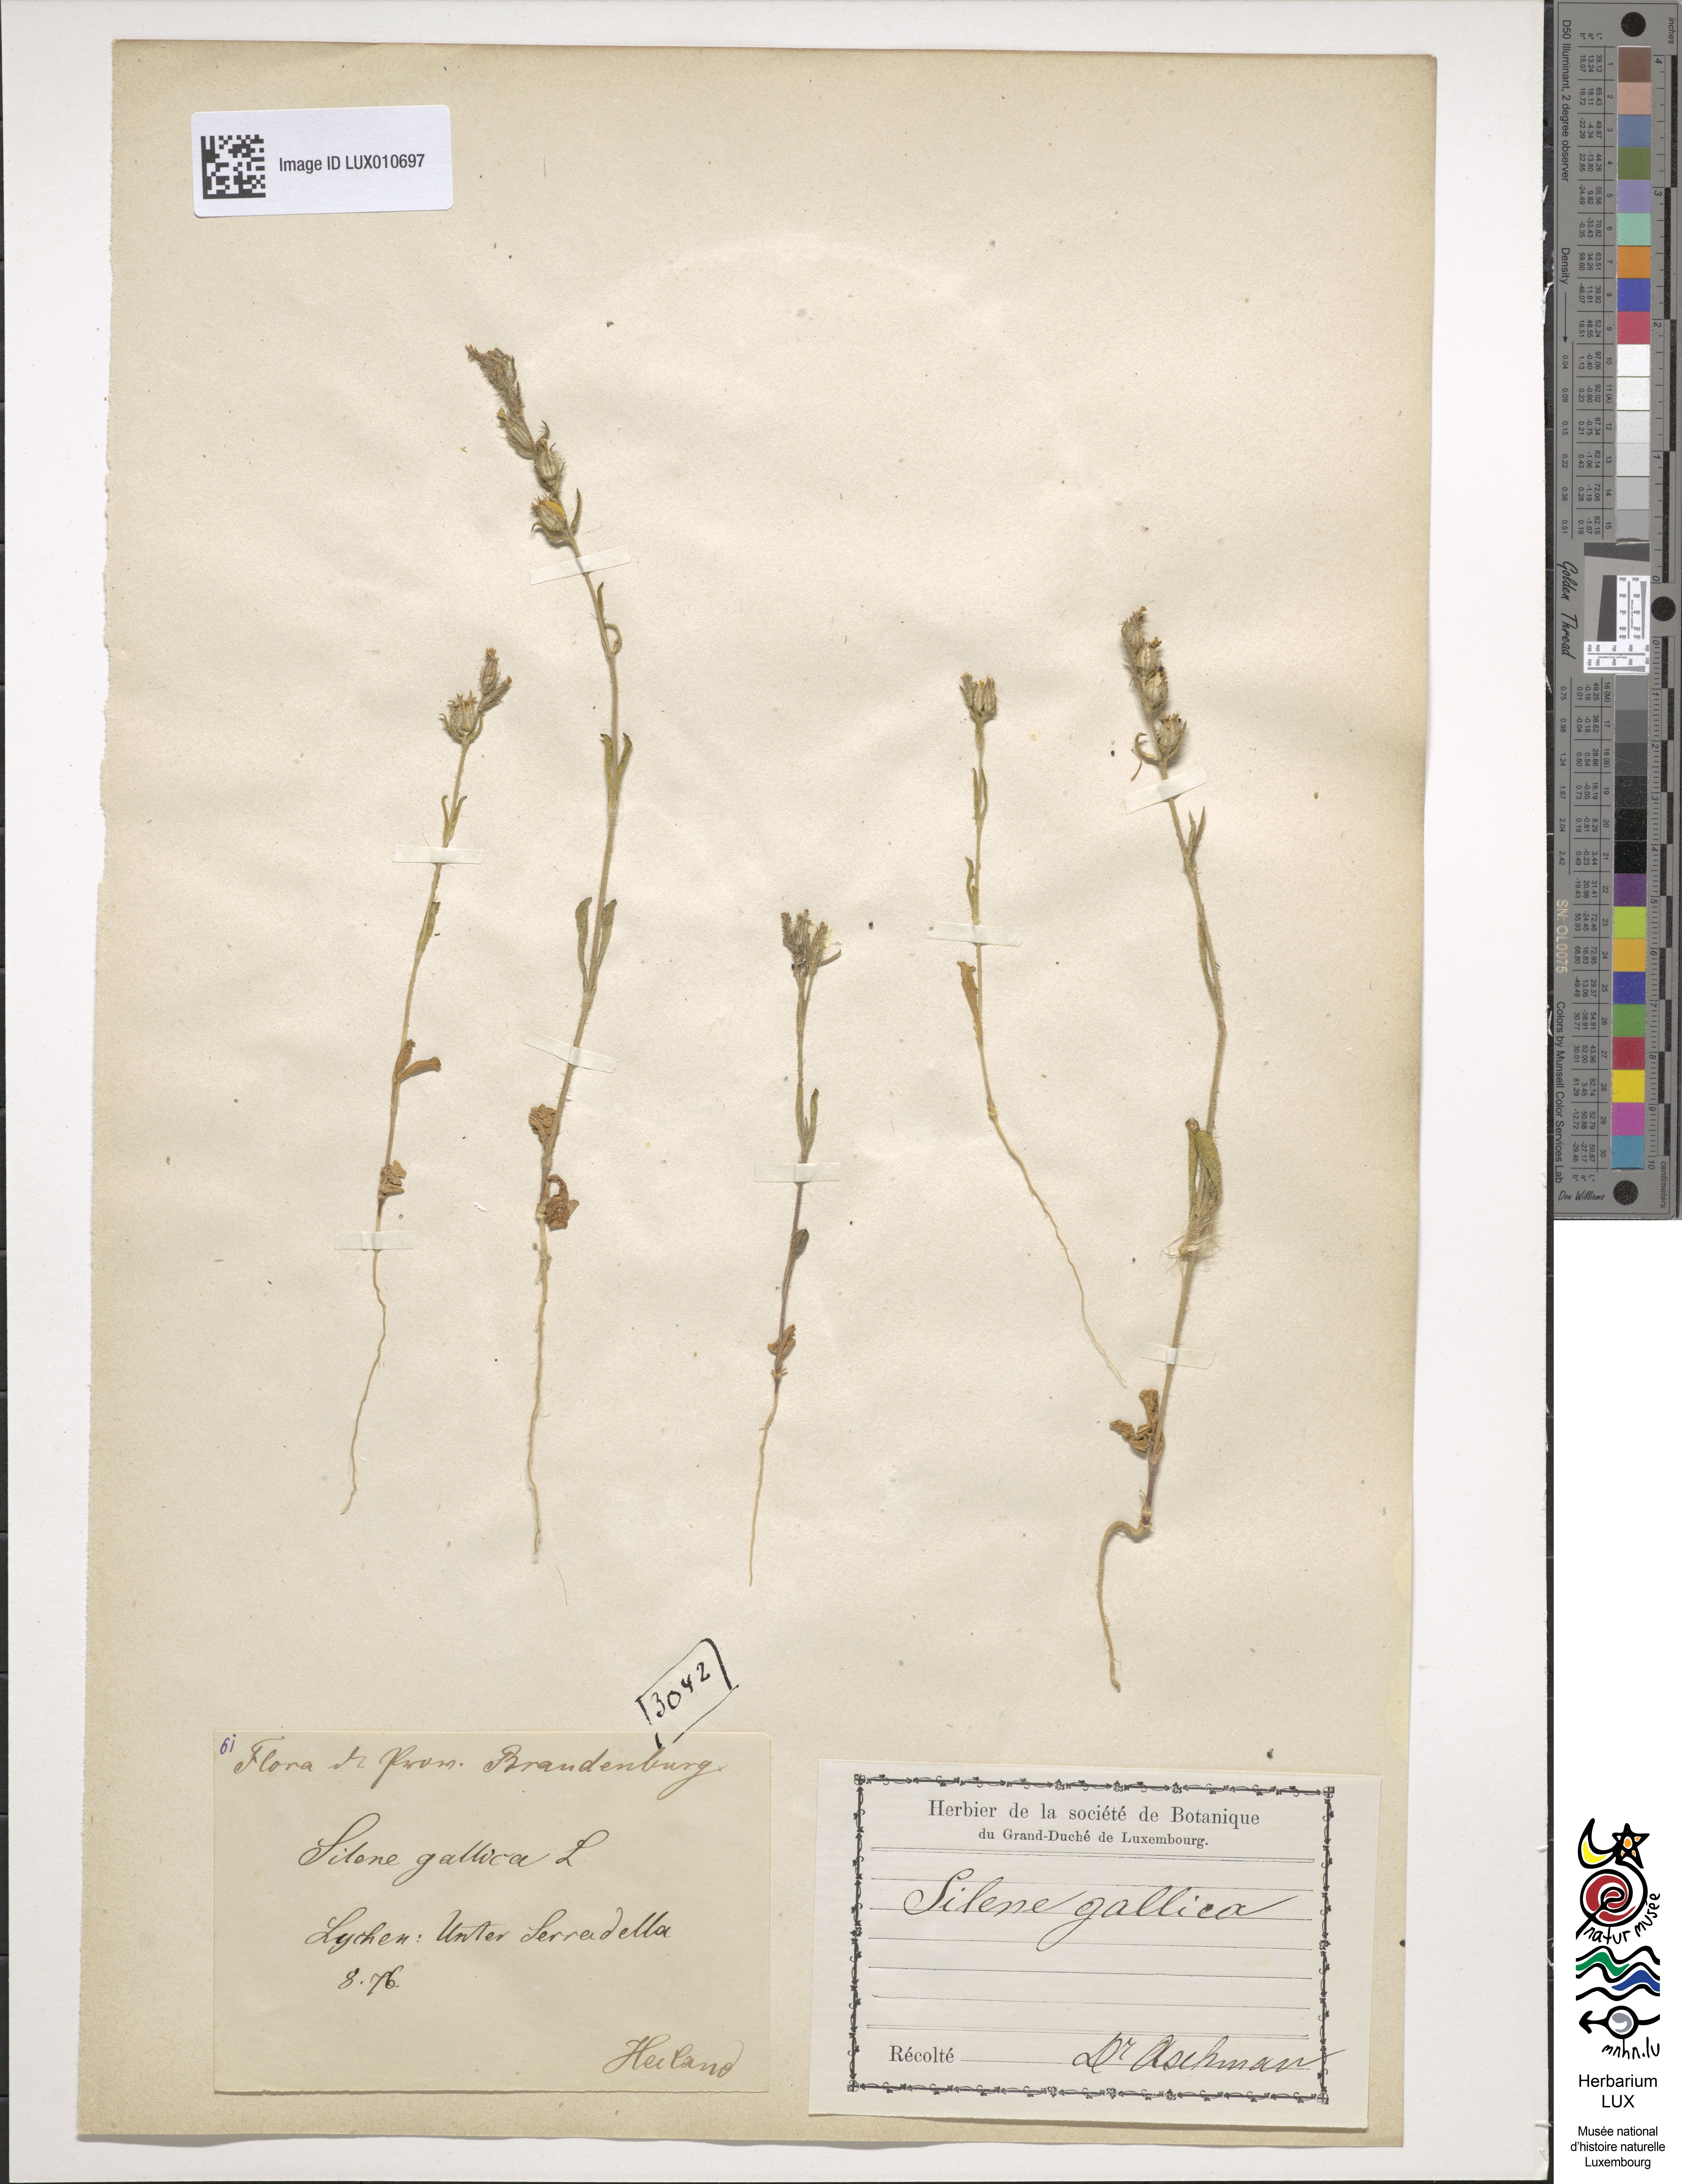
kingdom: Plantae
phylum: Tracheophyta
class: Magnoliopsida
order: Caryophyllales
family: Caryophyllaceae
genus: Silene
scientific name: Silene gallica
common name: Small-flowered catchfly
